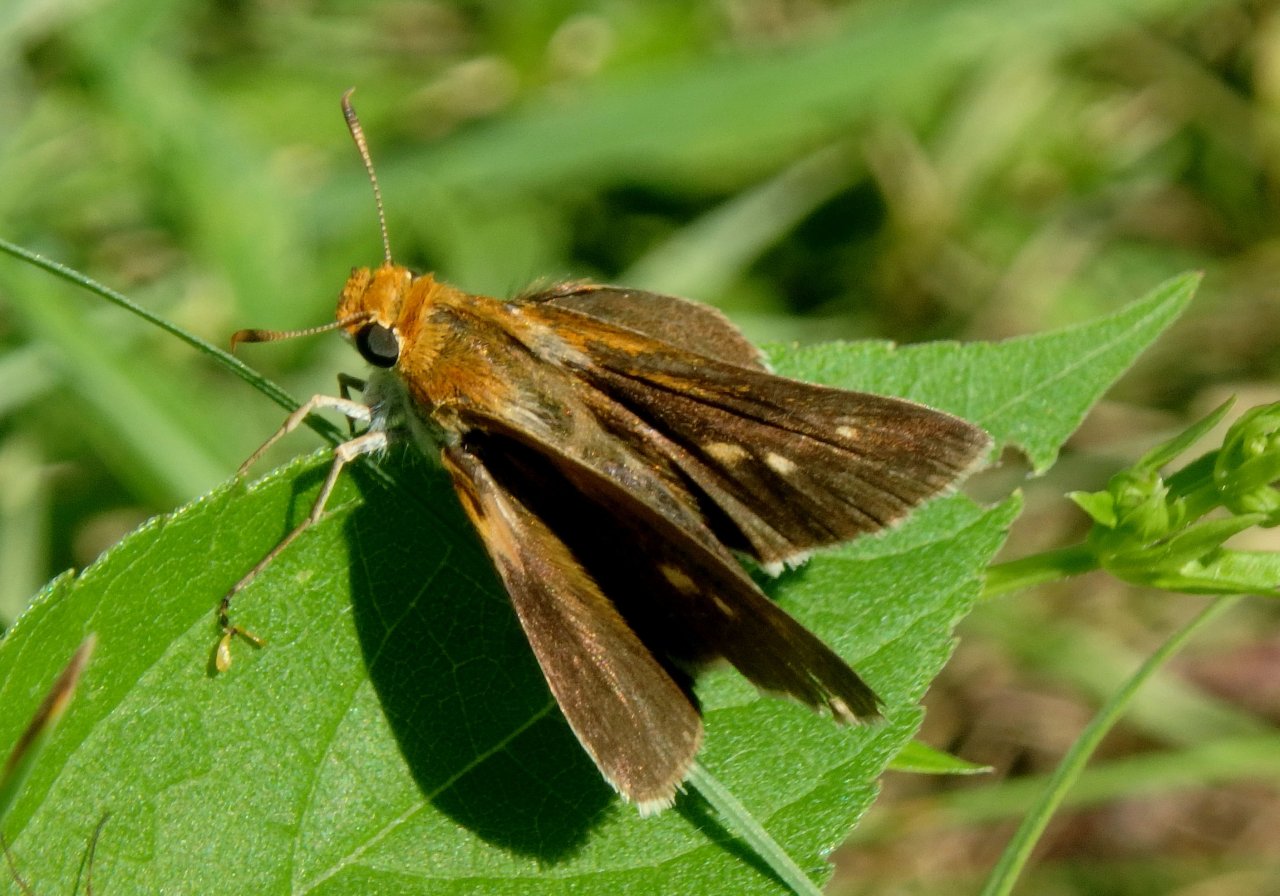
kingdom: Animalia
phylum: Arthropoda
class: Insecta
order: Lepidoptera
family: Hesperiidae
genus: Euphyes
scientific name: Euphyes bimacula
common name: Two-spotted Skipper
